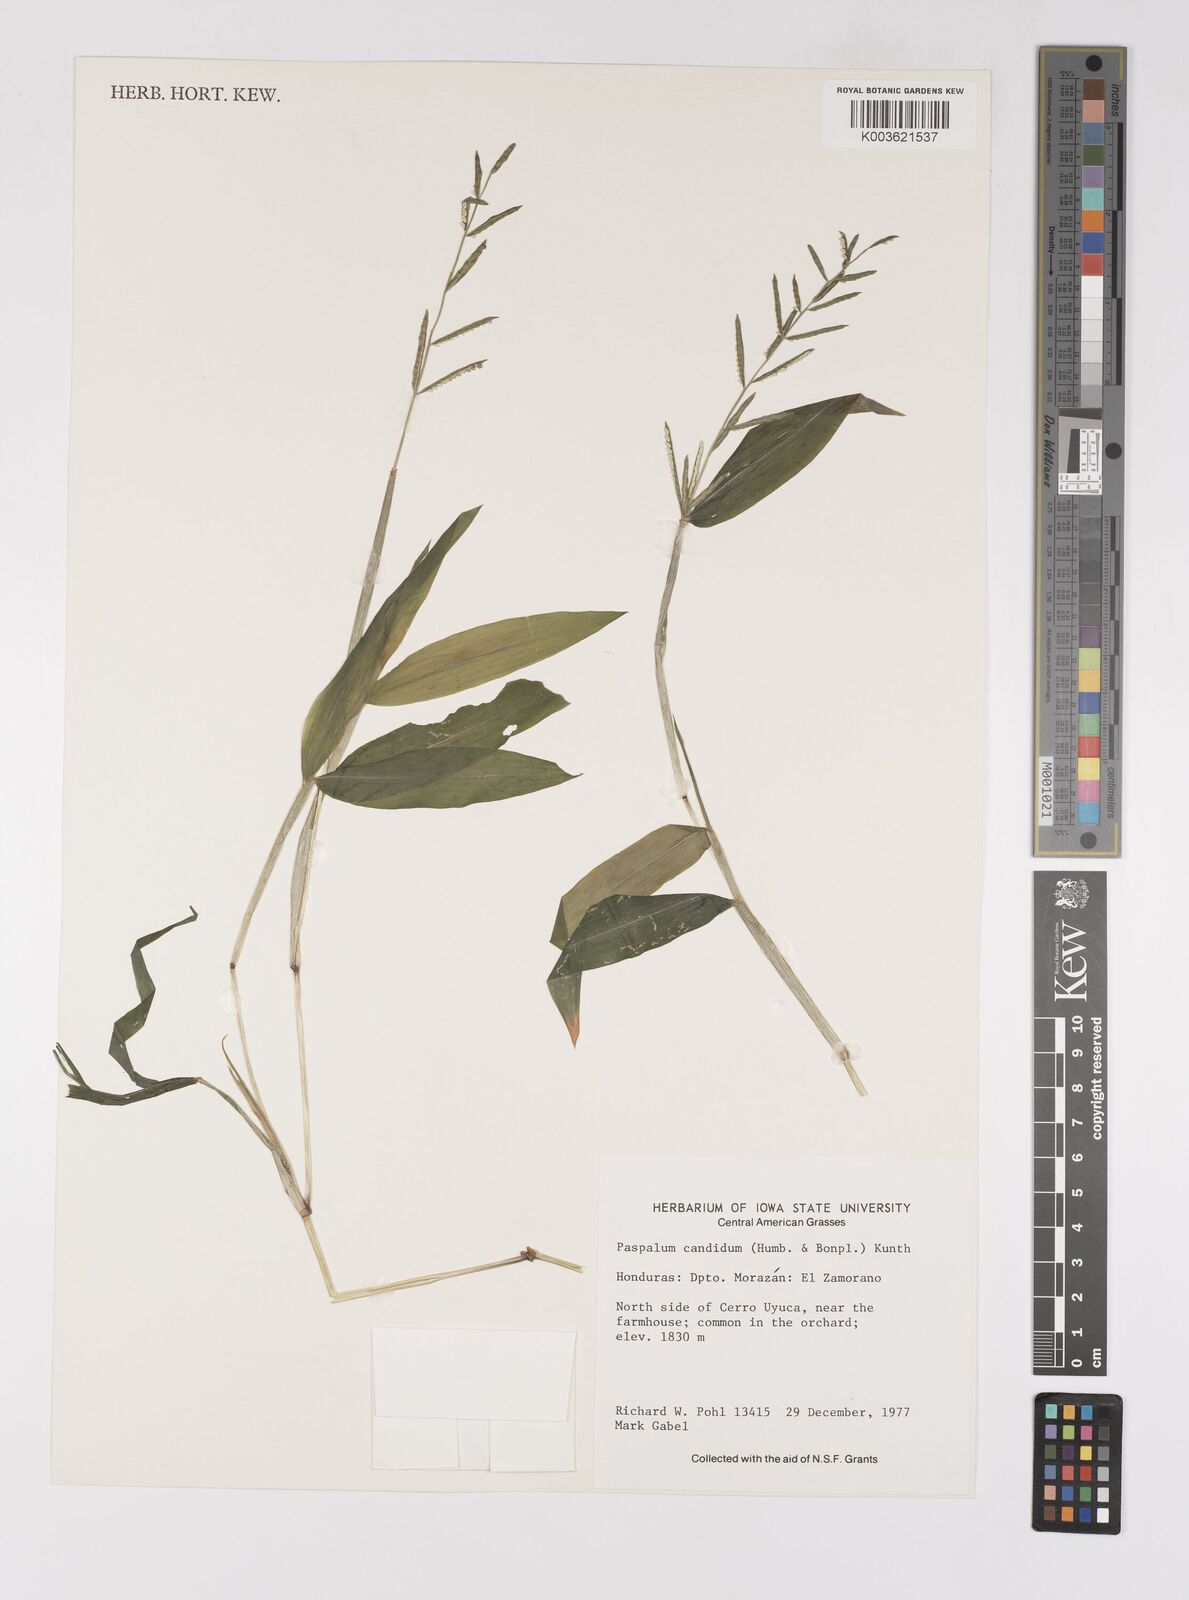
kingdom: Plantae
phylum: Tracheophyta
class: Liliopsida
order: Poales
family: Poaceae
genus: Paspalum
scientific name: Paspalum candidum
